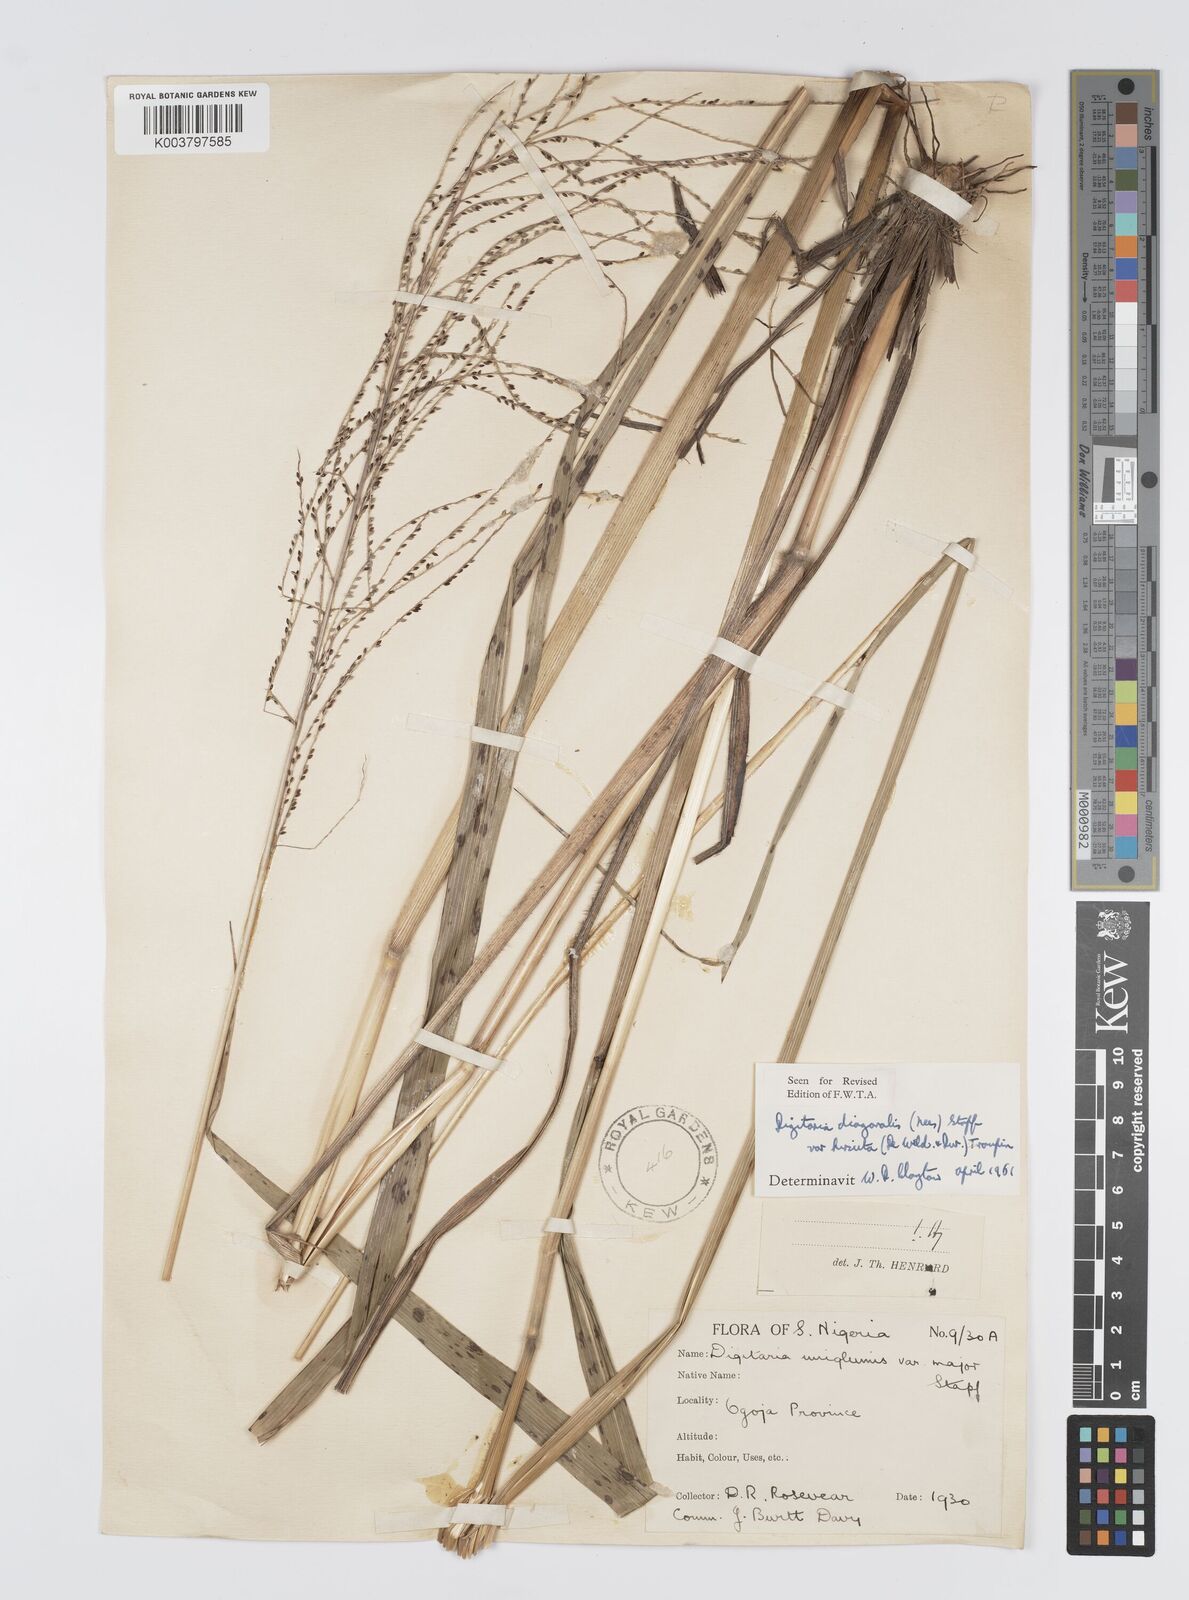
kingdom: Plantae
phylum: Tracheophyta
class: Liliopsida
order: Poales
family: Poaceae
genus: Digitaria
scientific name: Digitaria diagonalis
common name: Brown-seed finger grass
